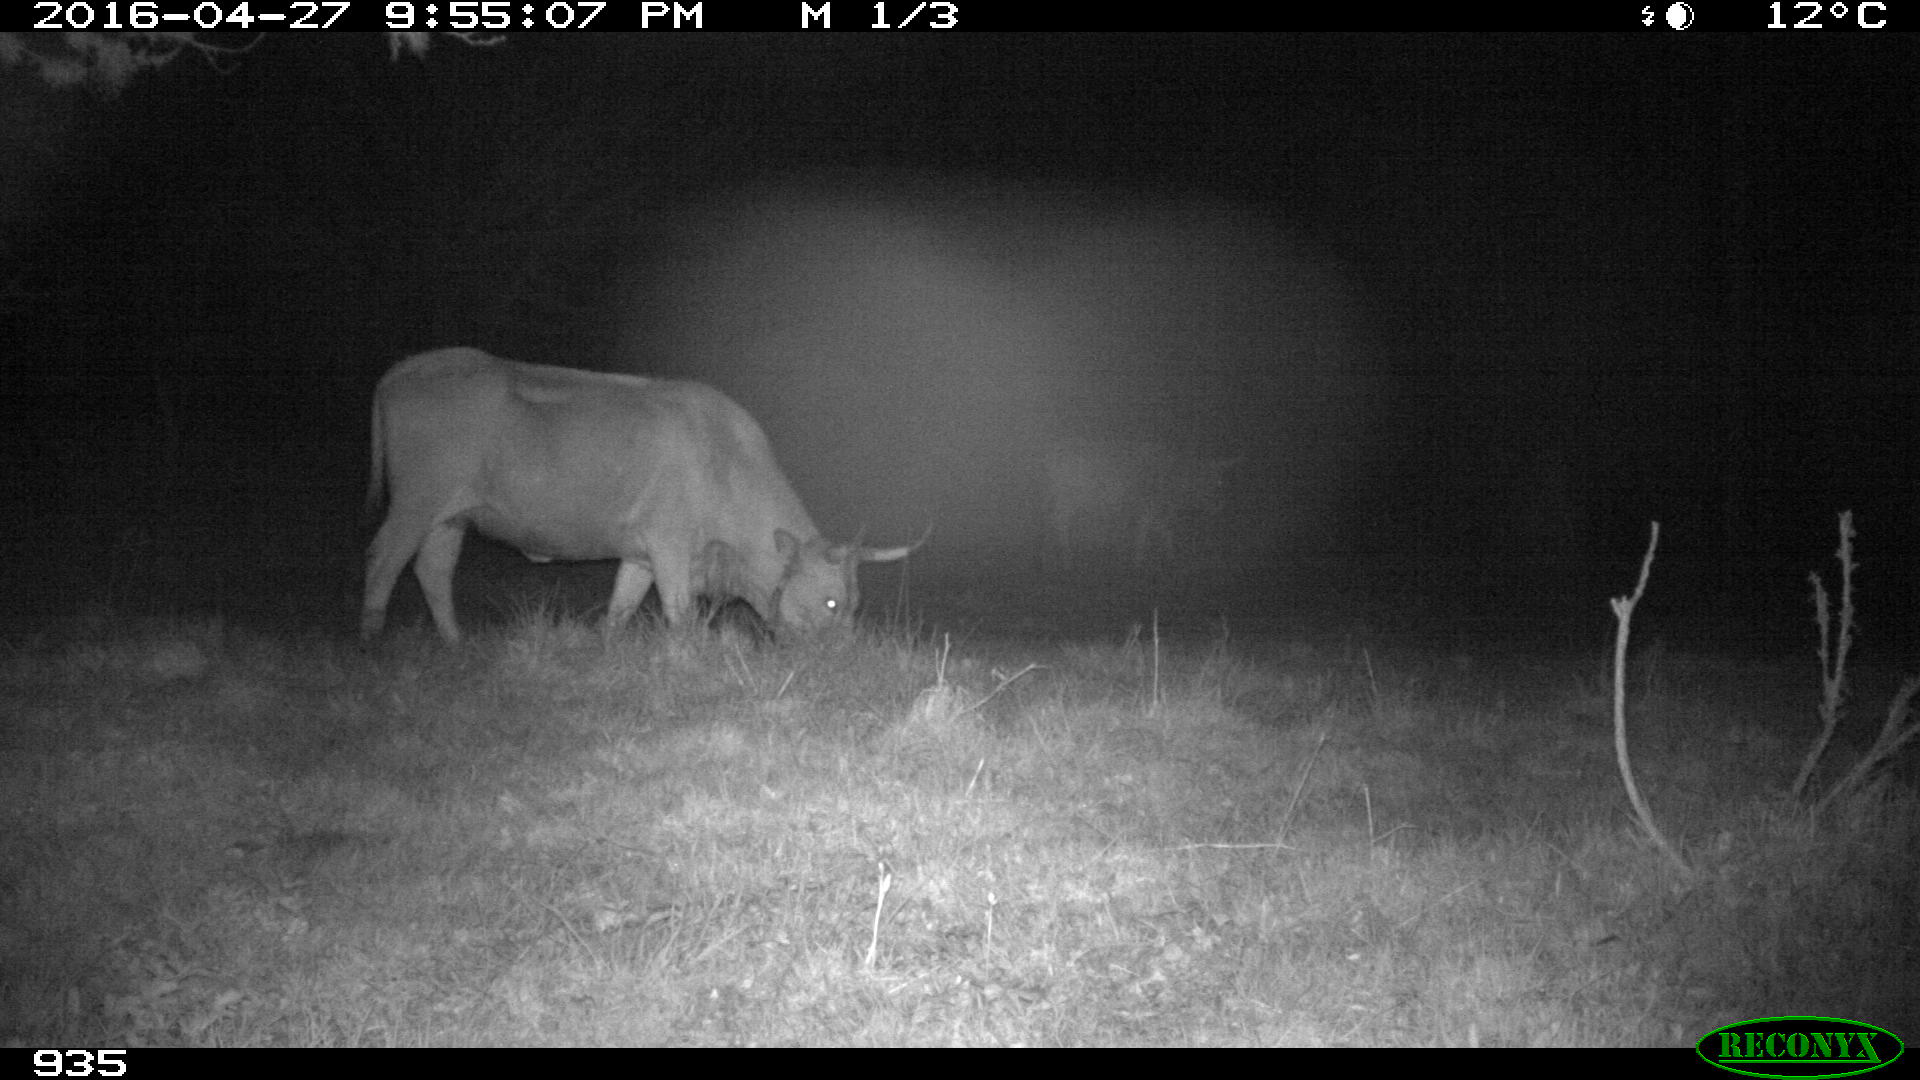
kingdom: Animalia
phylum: Chordata
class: Mammalia
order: Artiodactyla
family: Bovidae
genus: Bos
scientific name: Bos taurus
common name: Domesticated cattle
